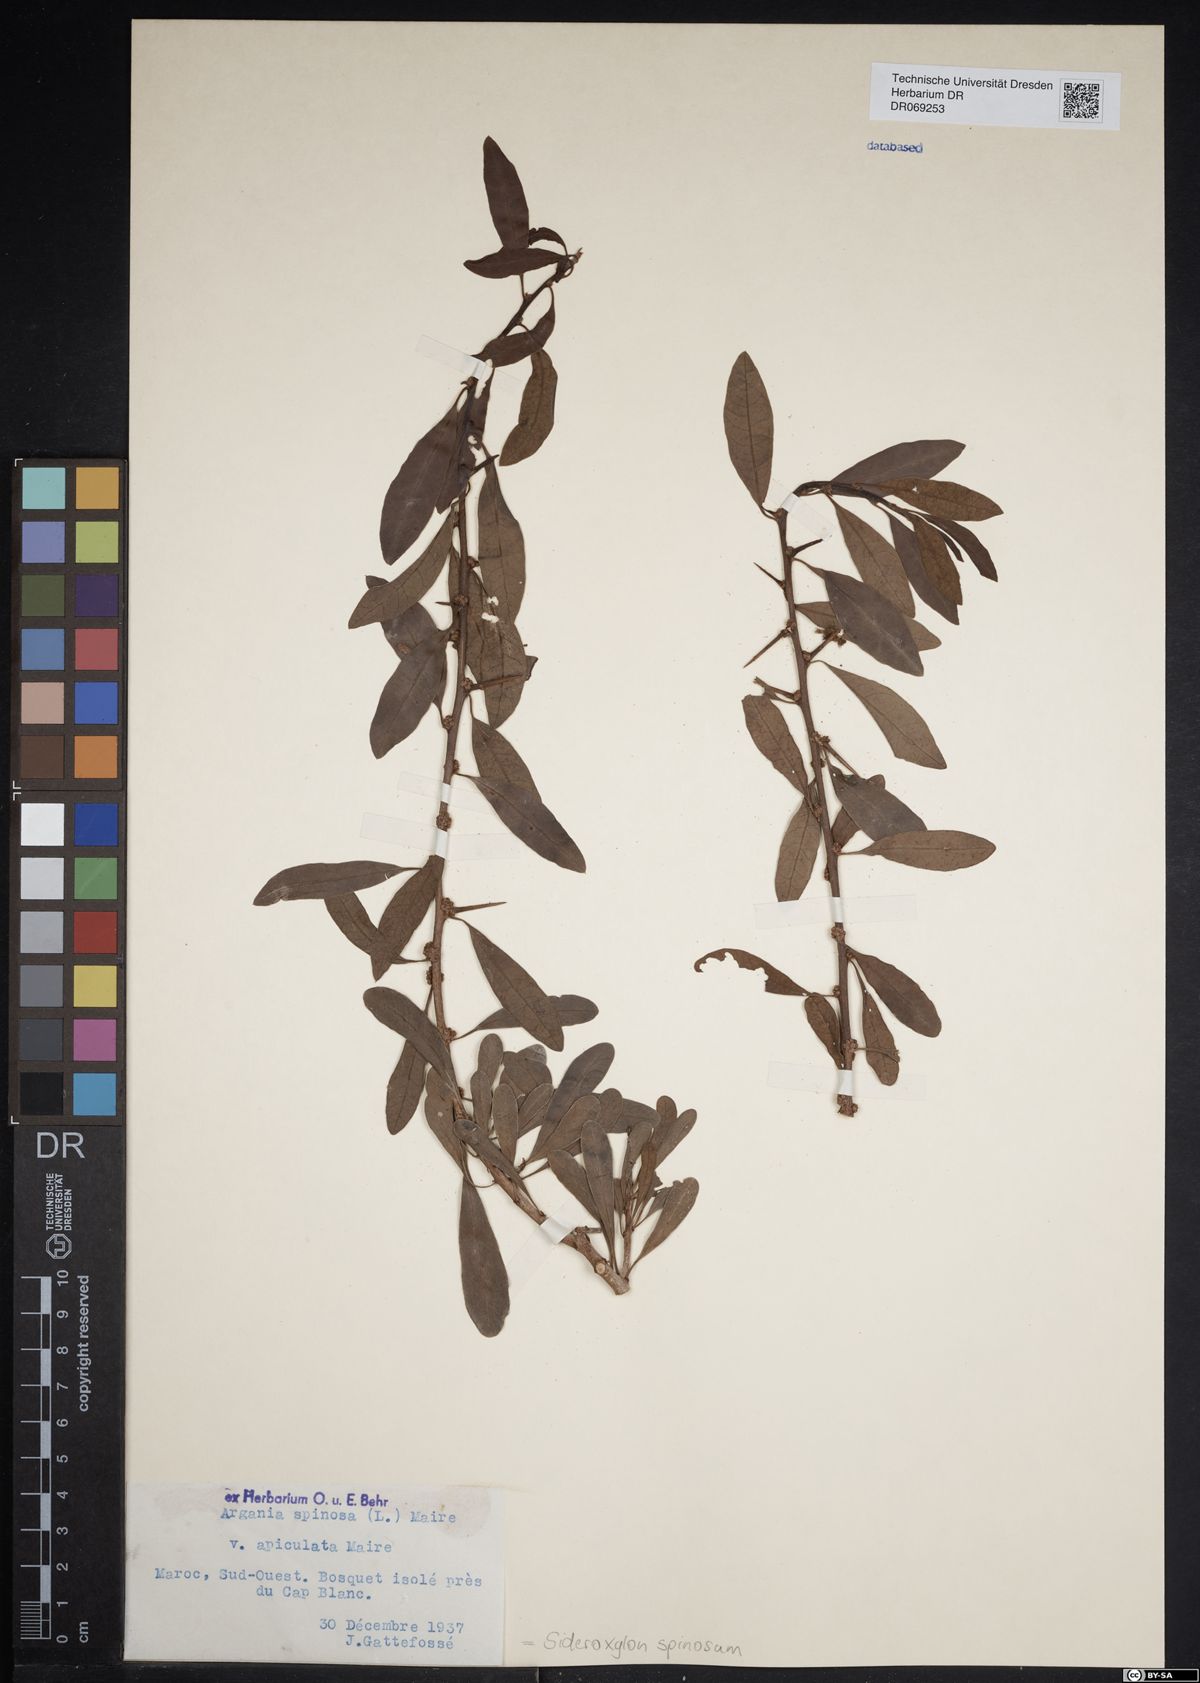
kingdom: Plantae
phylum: Tracheophyta
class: Magnoliopsida
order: Ericales
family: Sapotaceae
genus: Sideroxylon
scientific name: Sideroxylon spinosum
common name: Argan
